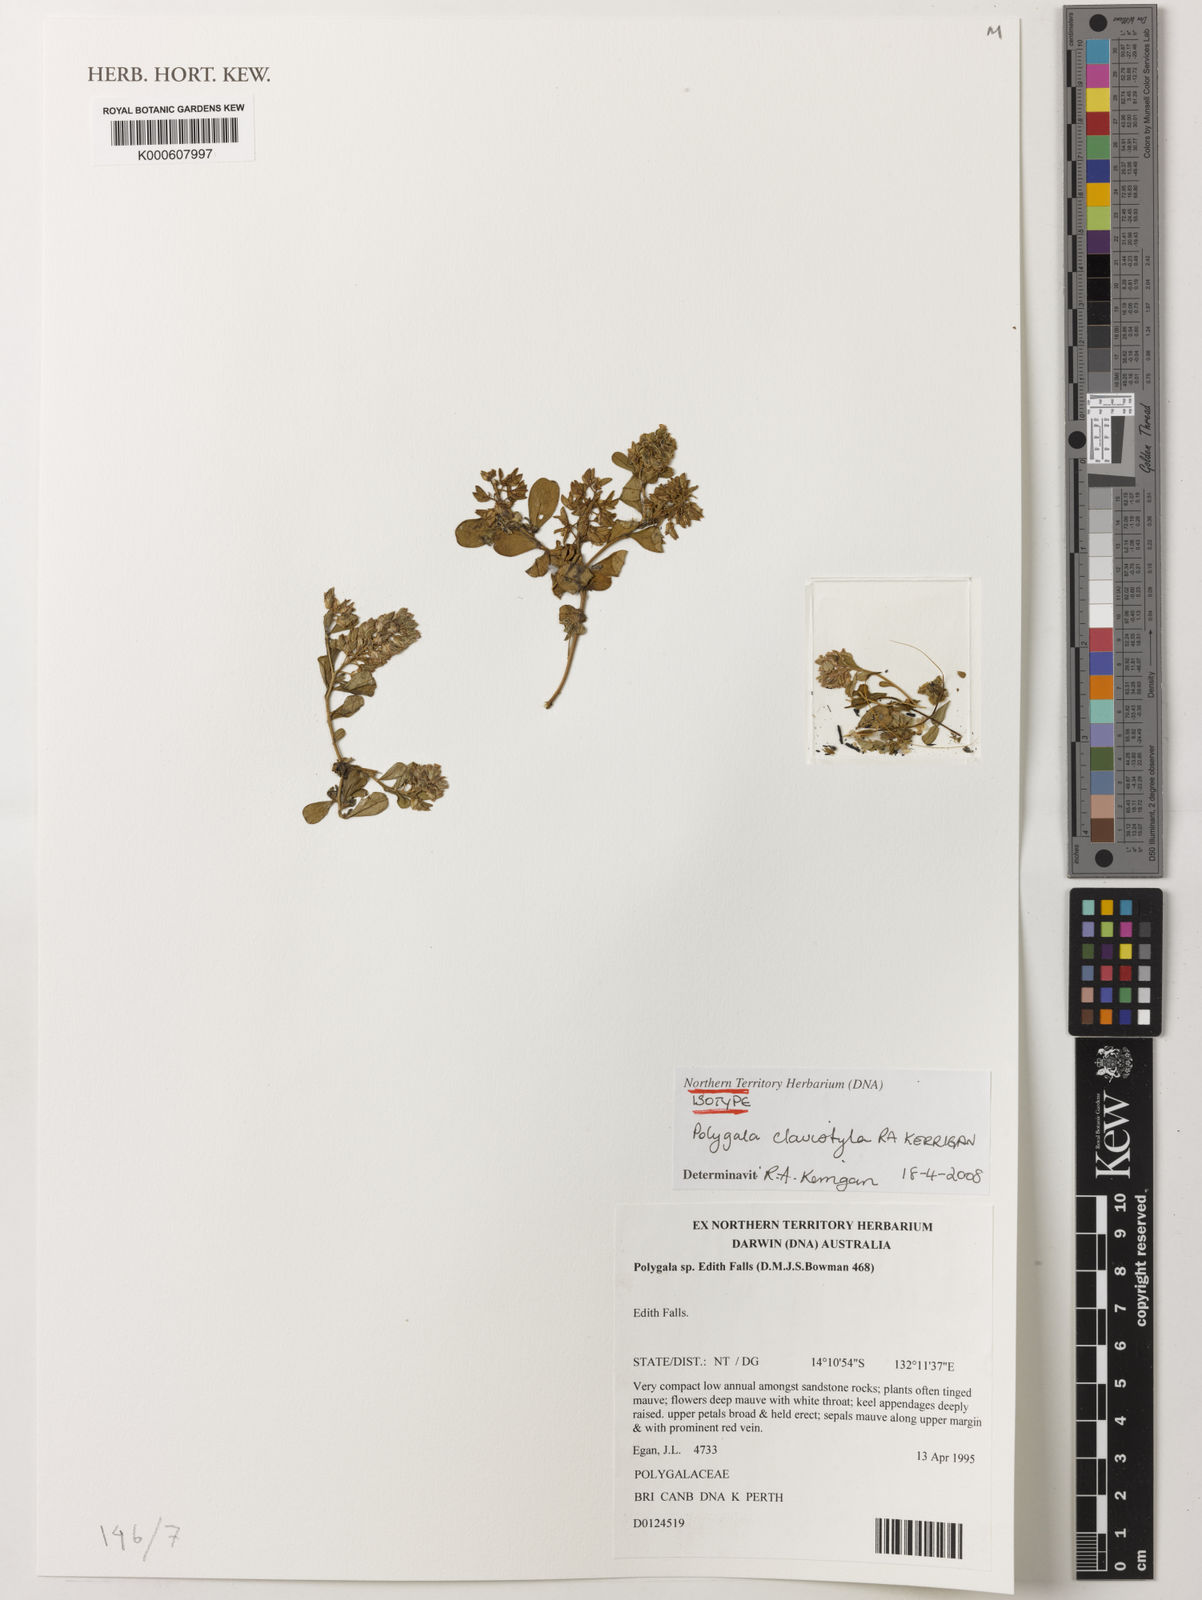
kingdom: Plantae
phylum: Tracheophyta
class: Magnoliopsida
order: Fabales
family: Polygalaceae
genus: Polygala
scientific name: Polygala clavistyla
